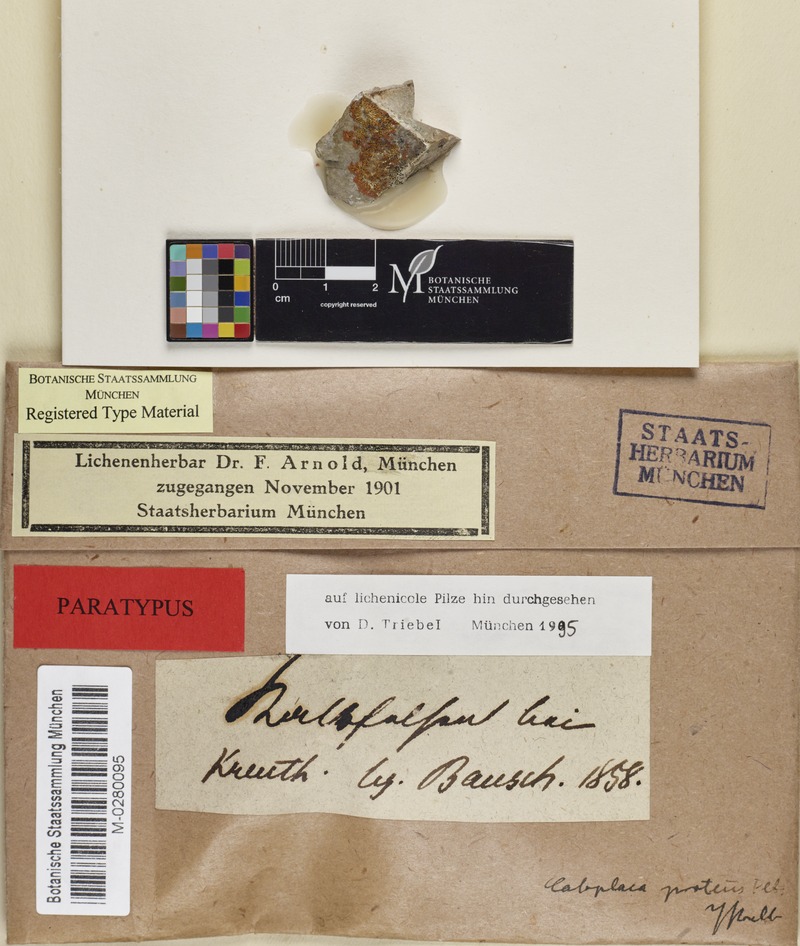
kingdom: Fungi
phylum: Ascomycota
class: Lecanoromycetes
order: Teloschistales
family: Teloschistaceae
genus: Leproplaca
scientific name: Leproplaca proteus
